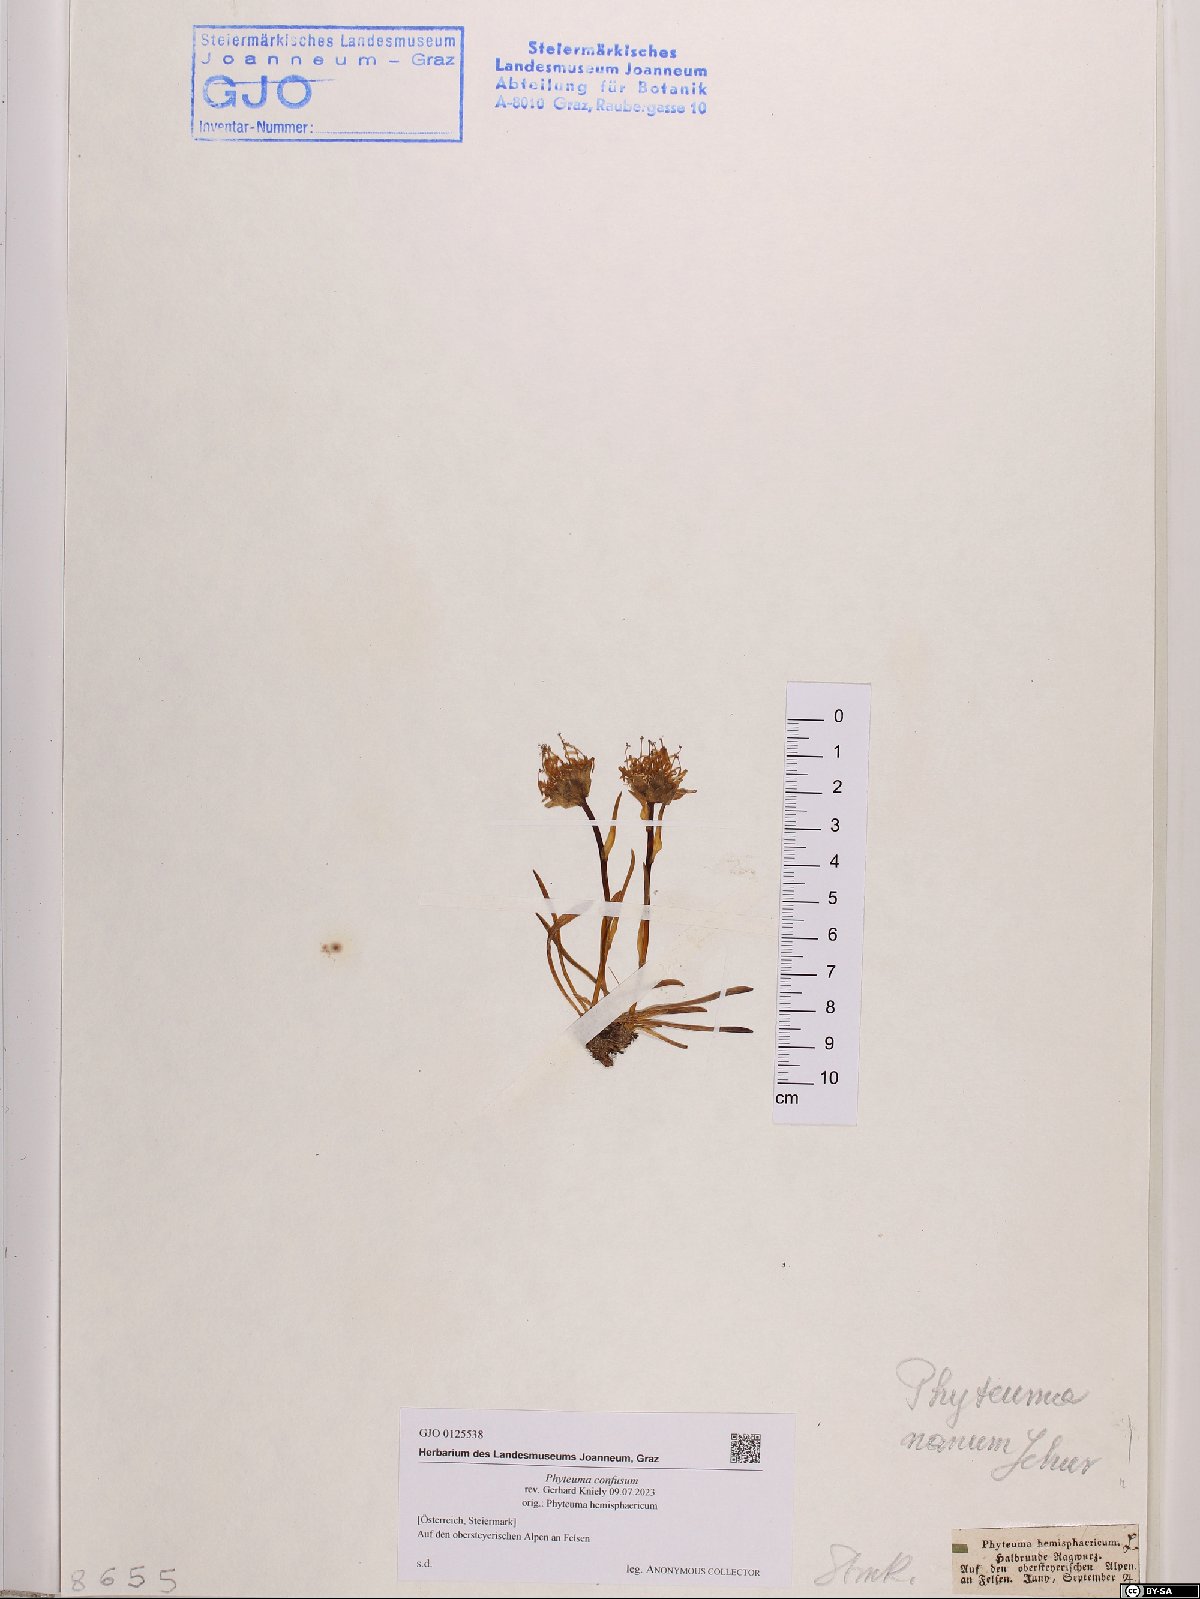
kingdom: Plantae
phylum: Tracheophyta
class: Magnoliopsida
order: Asterales
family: Campanulaceae
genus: Phyteuma
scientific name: Phyteuma confusum
